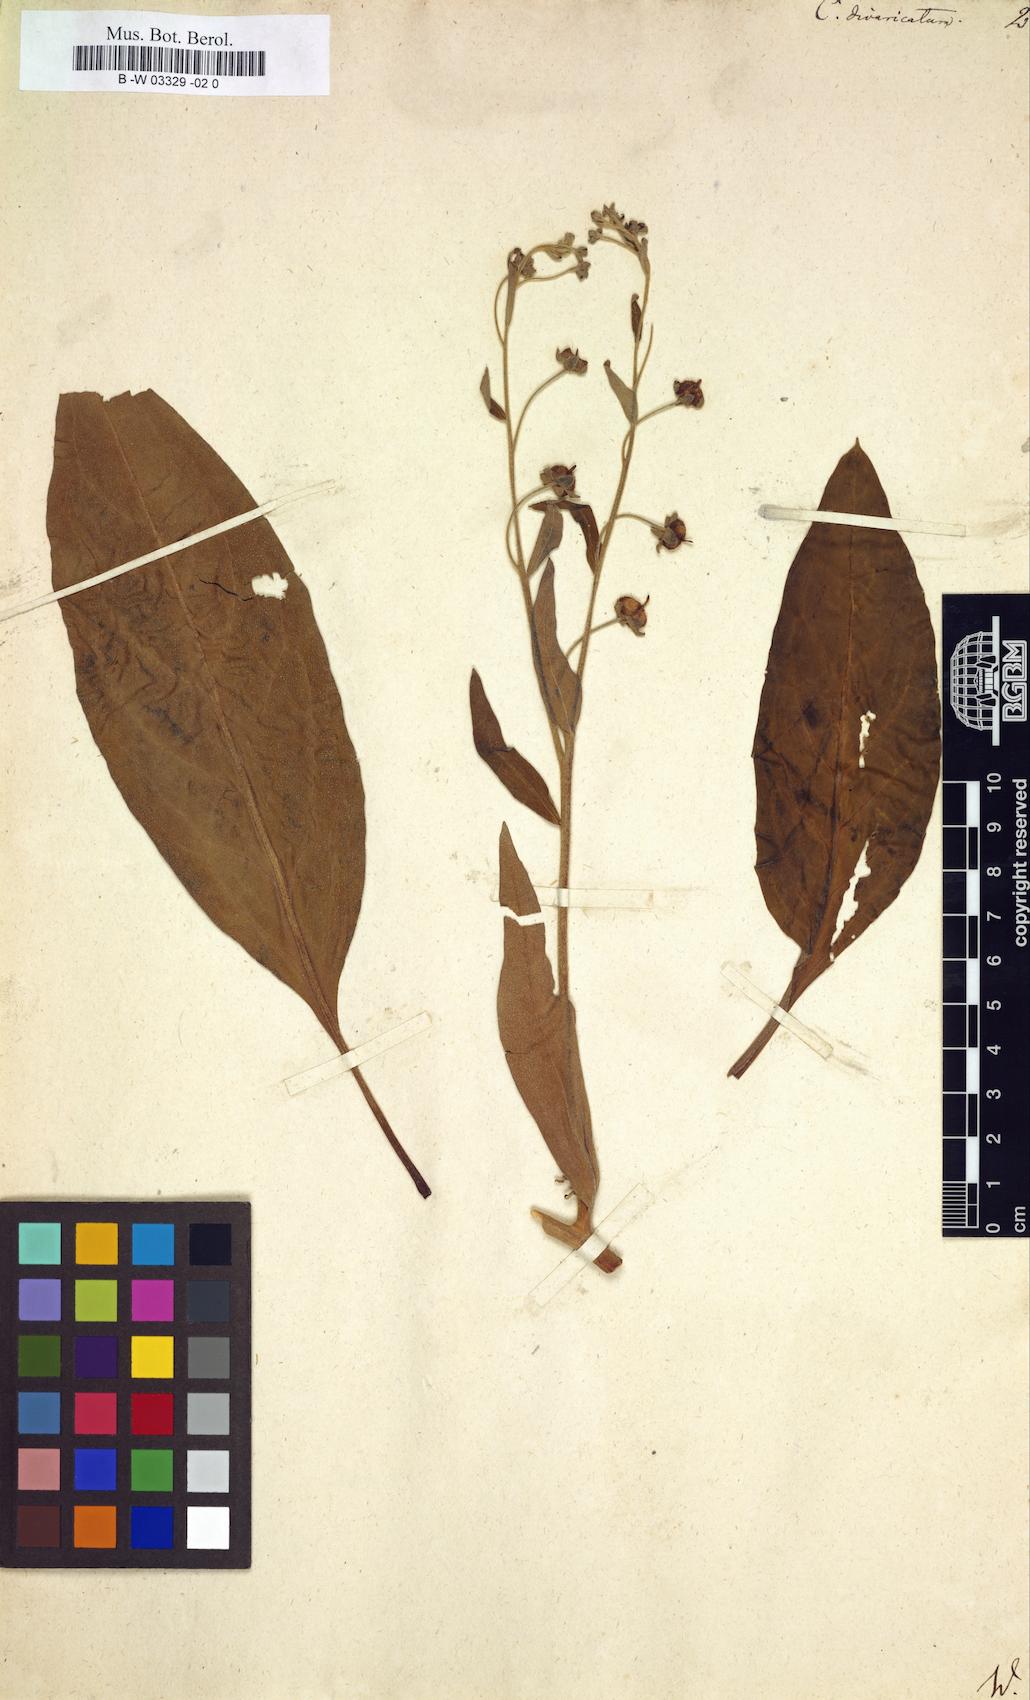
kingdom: Plantae
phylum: Tracheophyta
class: Magnoliopsida
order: Boraginales
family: Boraginaceae
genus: Cynoglossum
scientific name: Cynoglossum germanicum
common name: Green hound's-tongue
